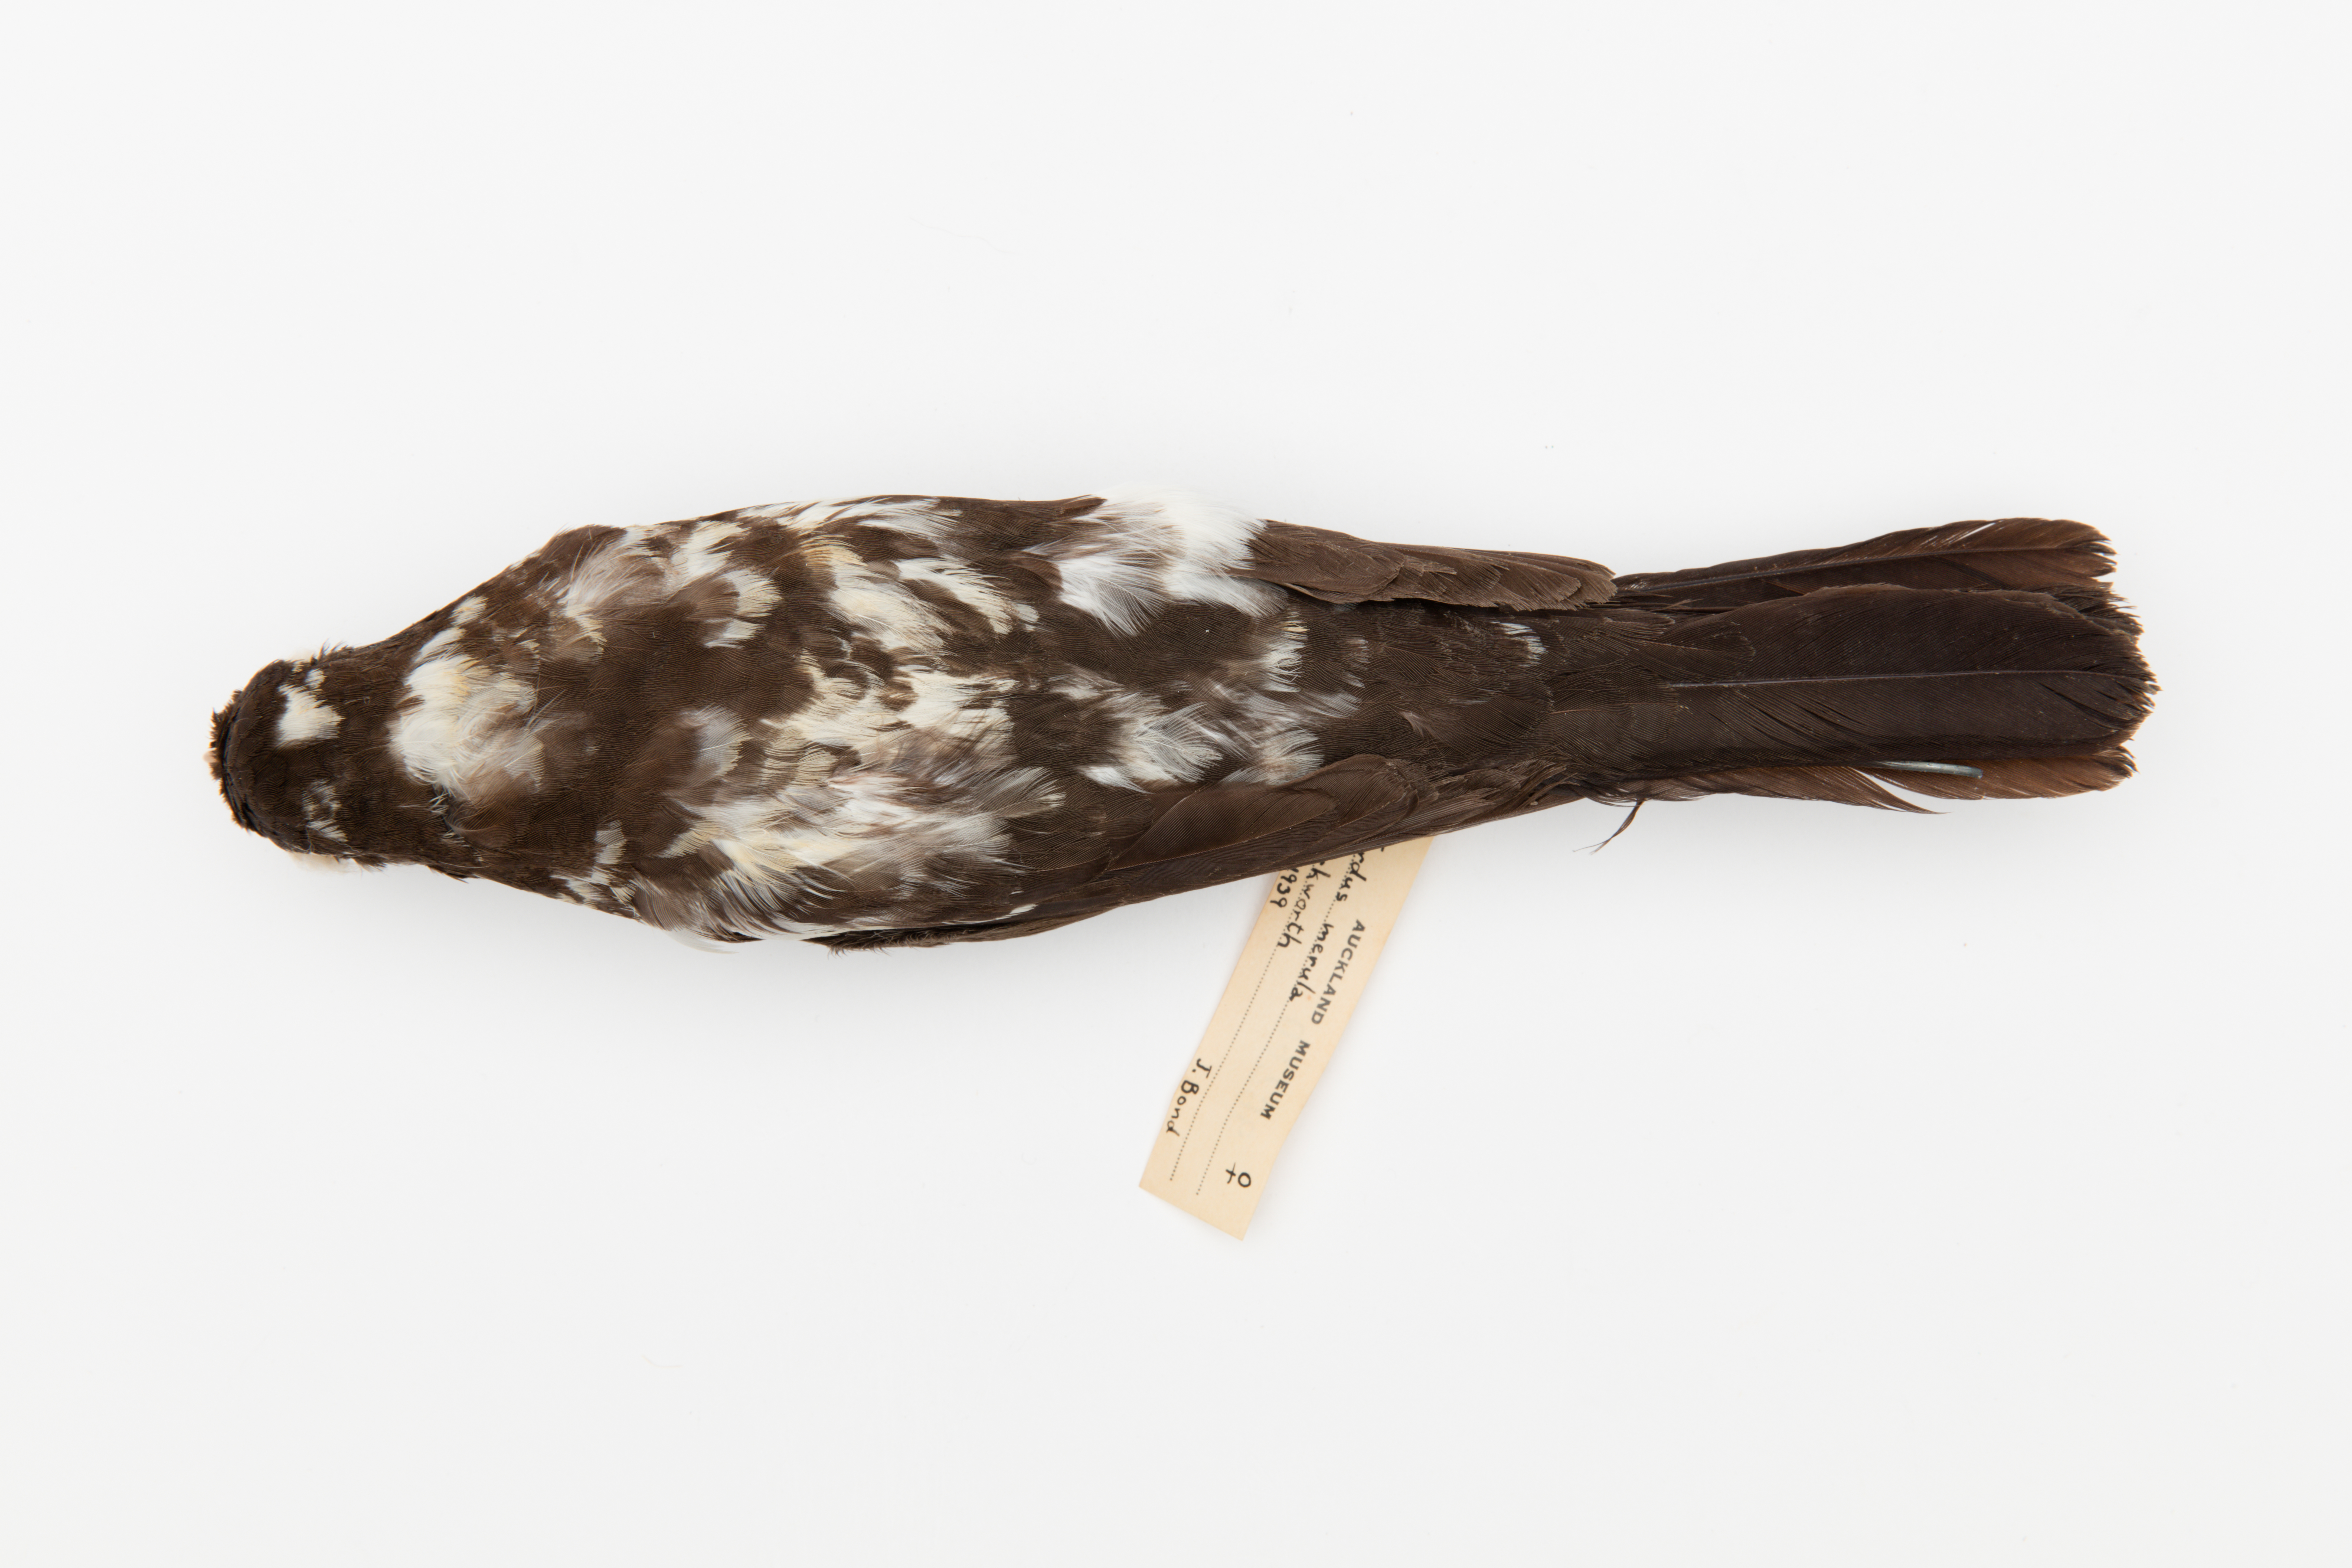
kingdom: Animalia
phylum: Chordata
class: Aves
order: Passeriformes
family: Turdidae
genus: Turdus
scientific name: Turdus merula
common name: Common blackbird
